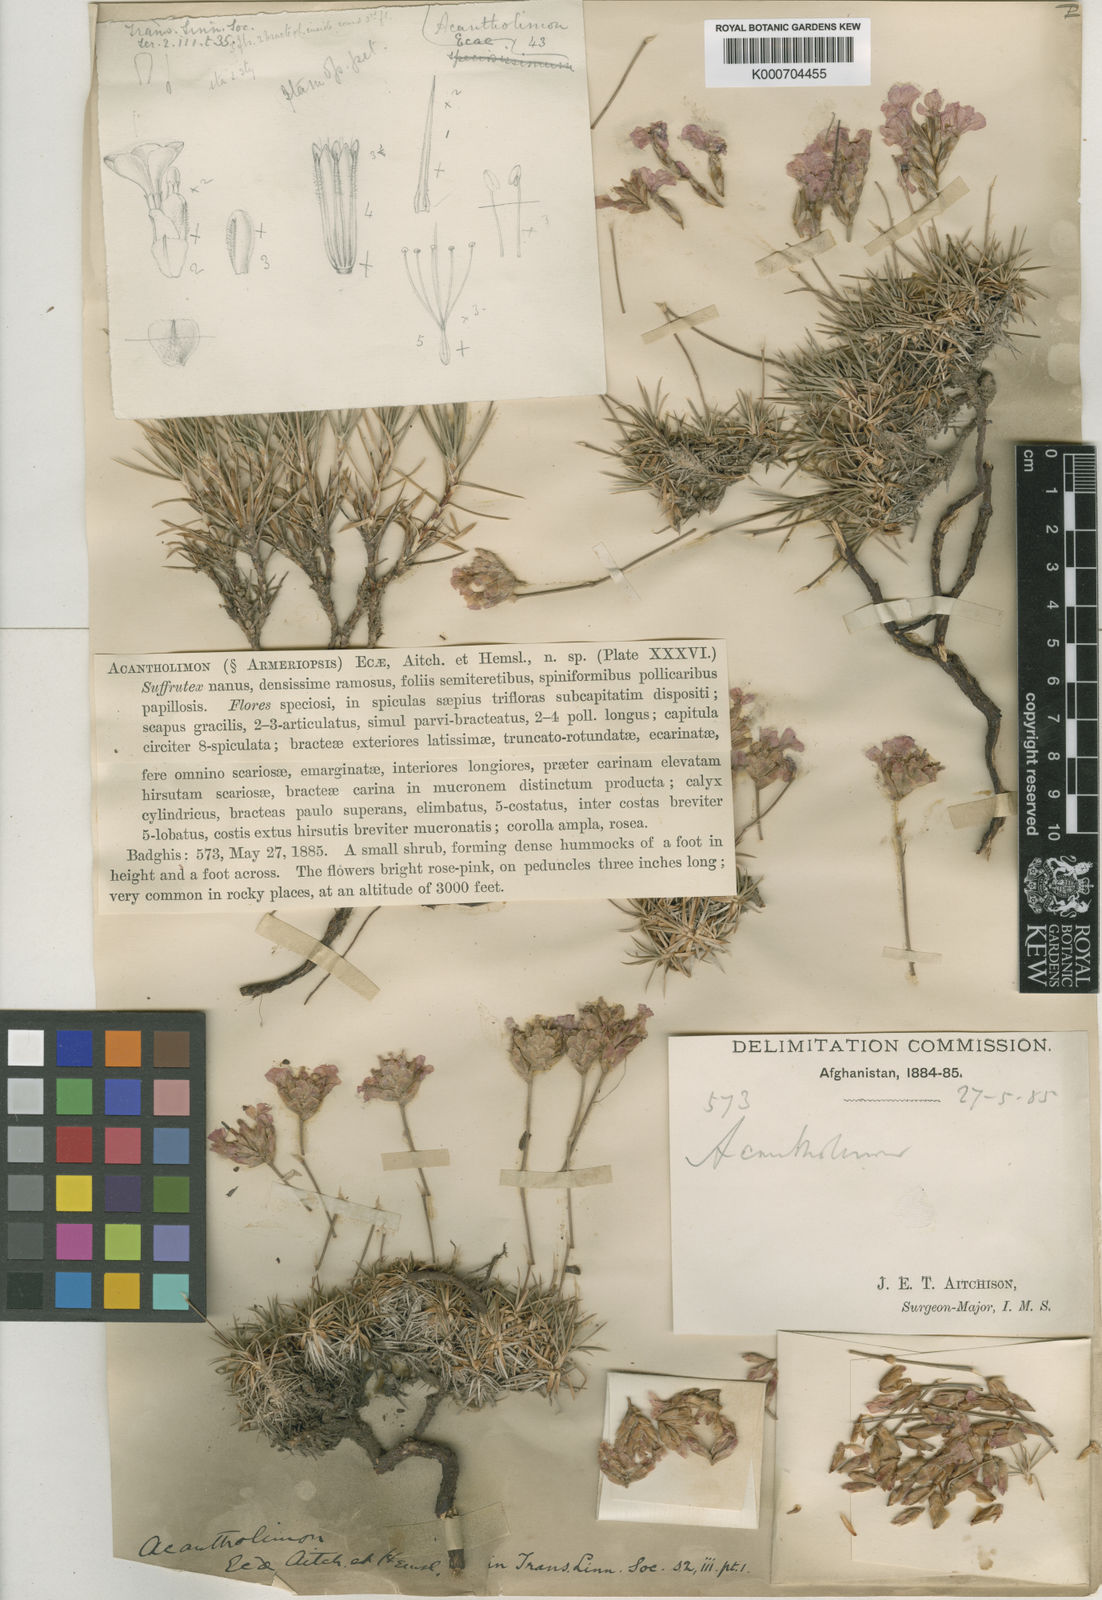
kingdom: Plantae
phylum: Tracheophyta
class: Magnoliopsida
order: Caryophyllales
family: Plumbaginaceae
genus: Acantholimon
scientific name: Acantholimon ecae
